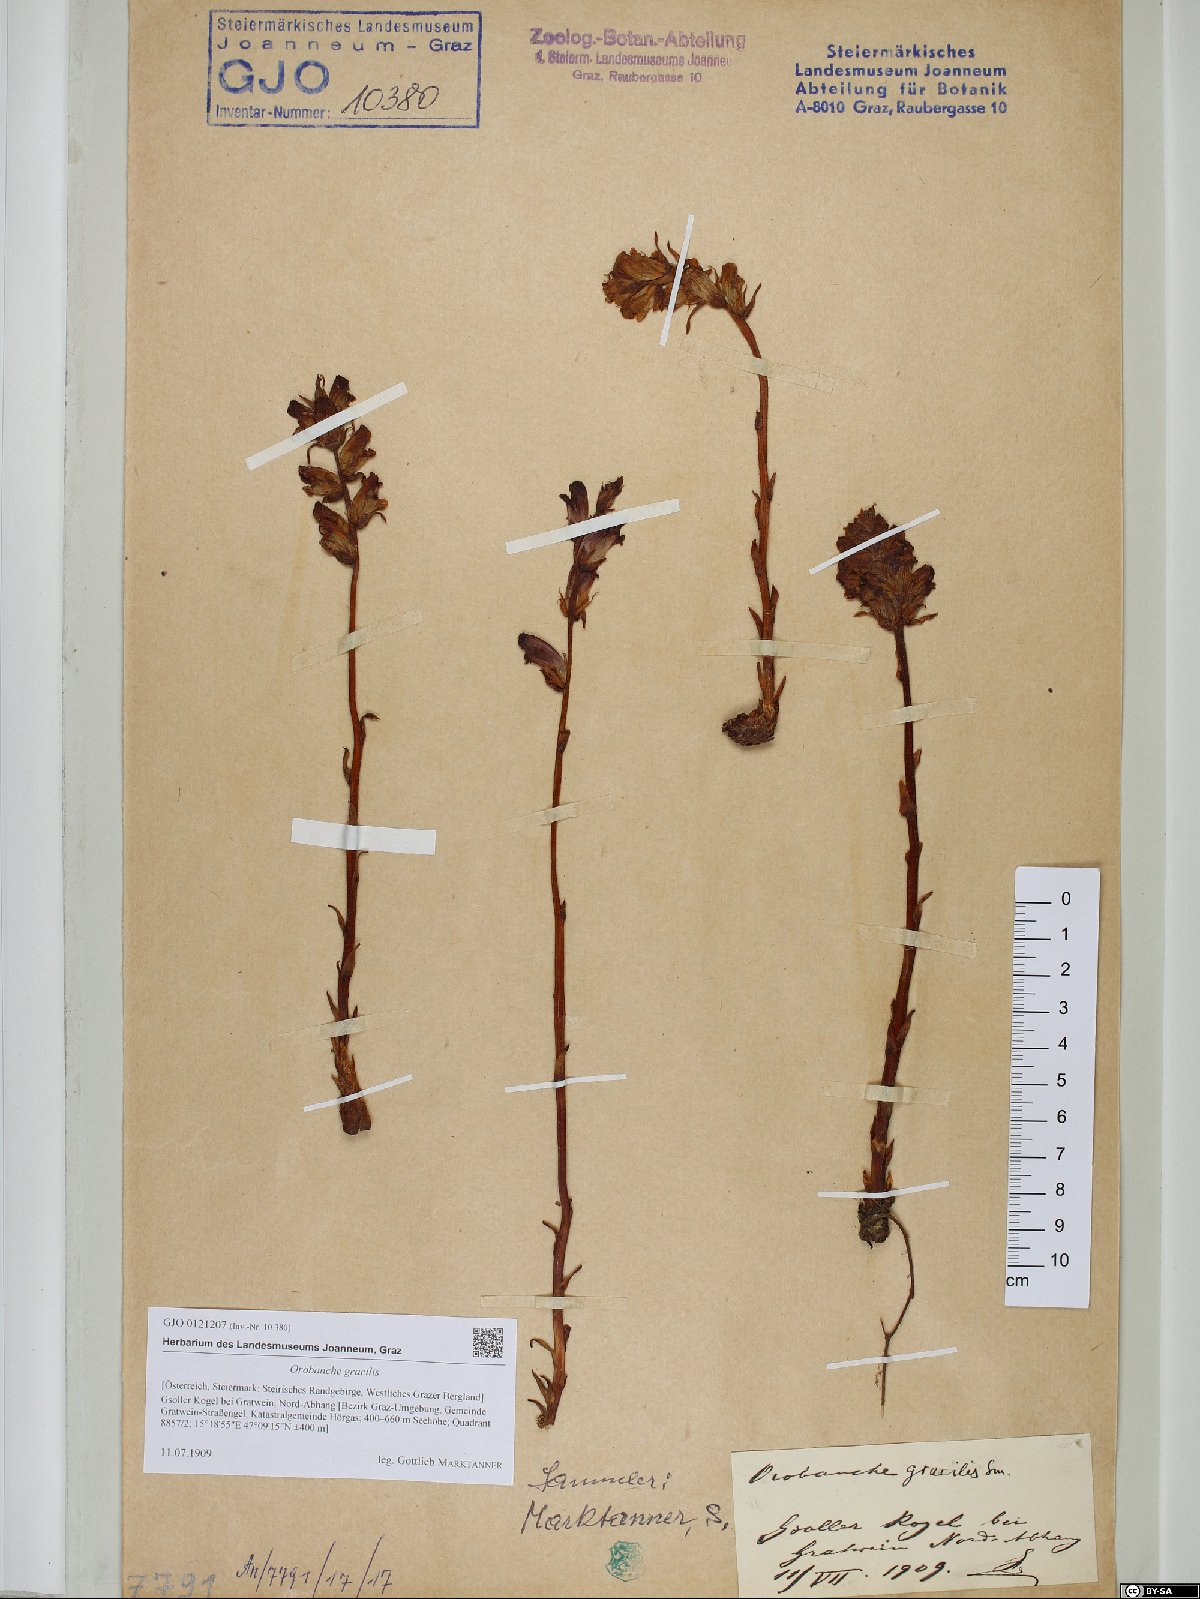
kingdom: Plantae
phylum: Tracheophyta
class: Magnoliopsida
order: Lamiales
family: Orobanchaceae
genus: Orobanche
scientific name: Orobanche gracilis
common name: Slender broomrape
